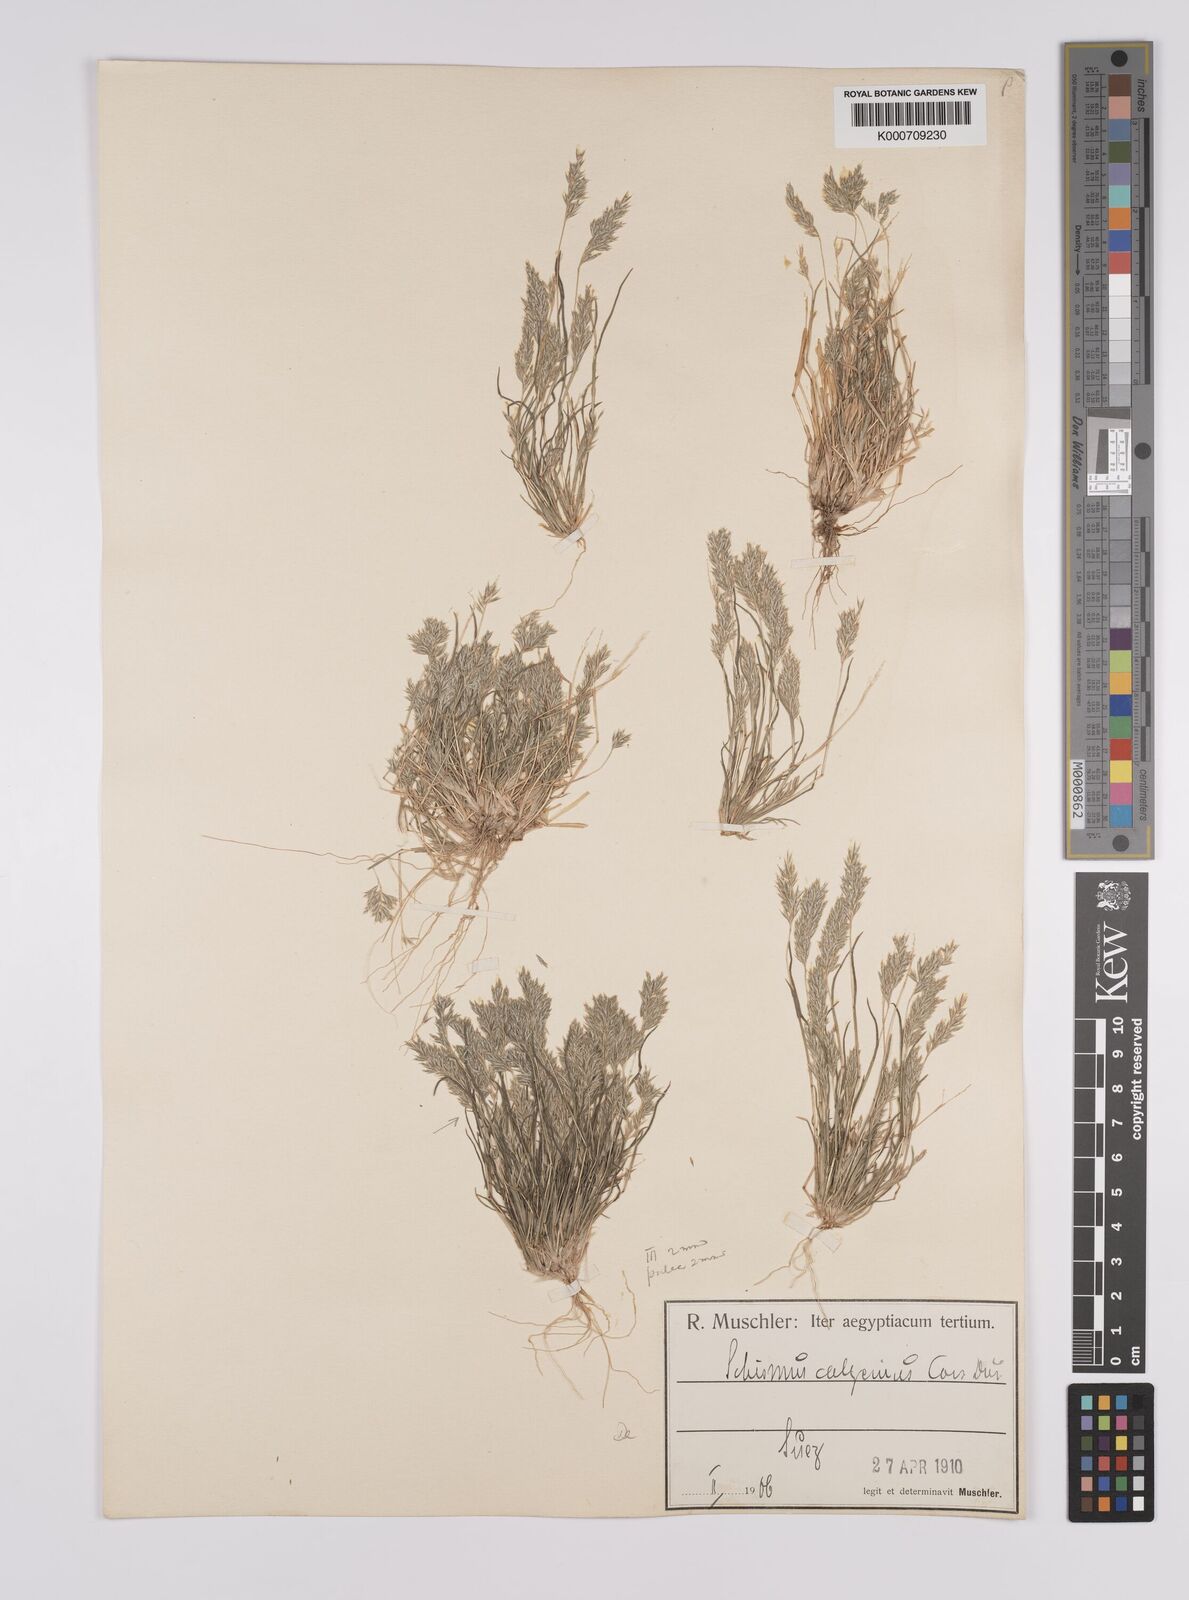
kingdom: Plantae
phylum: Tracheophyta
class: Liliopsida
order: Poales
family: Poaceae
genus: Schismus
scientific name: Schismus barbatus
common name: Kelch-grass
